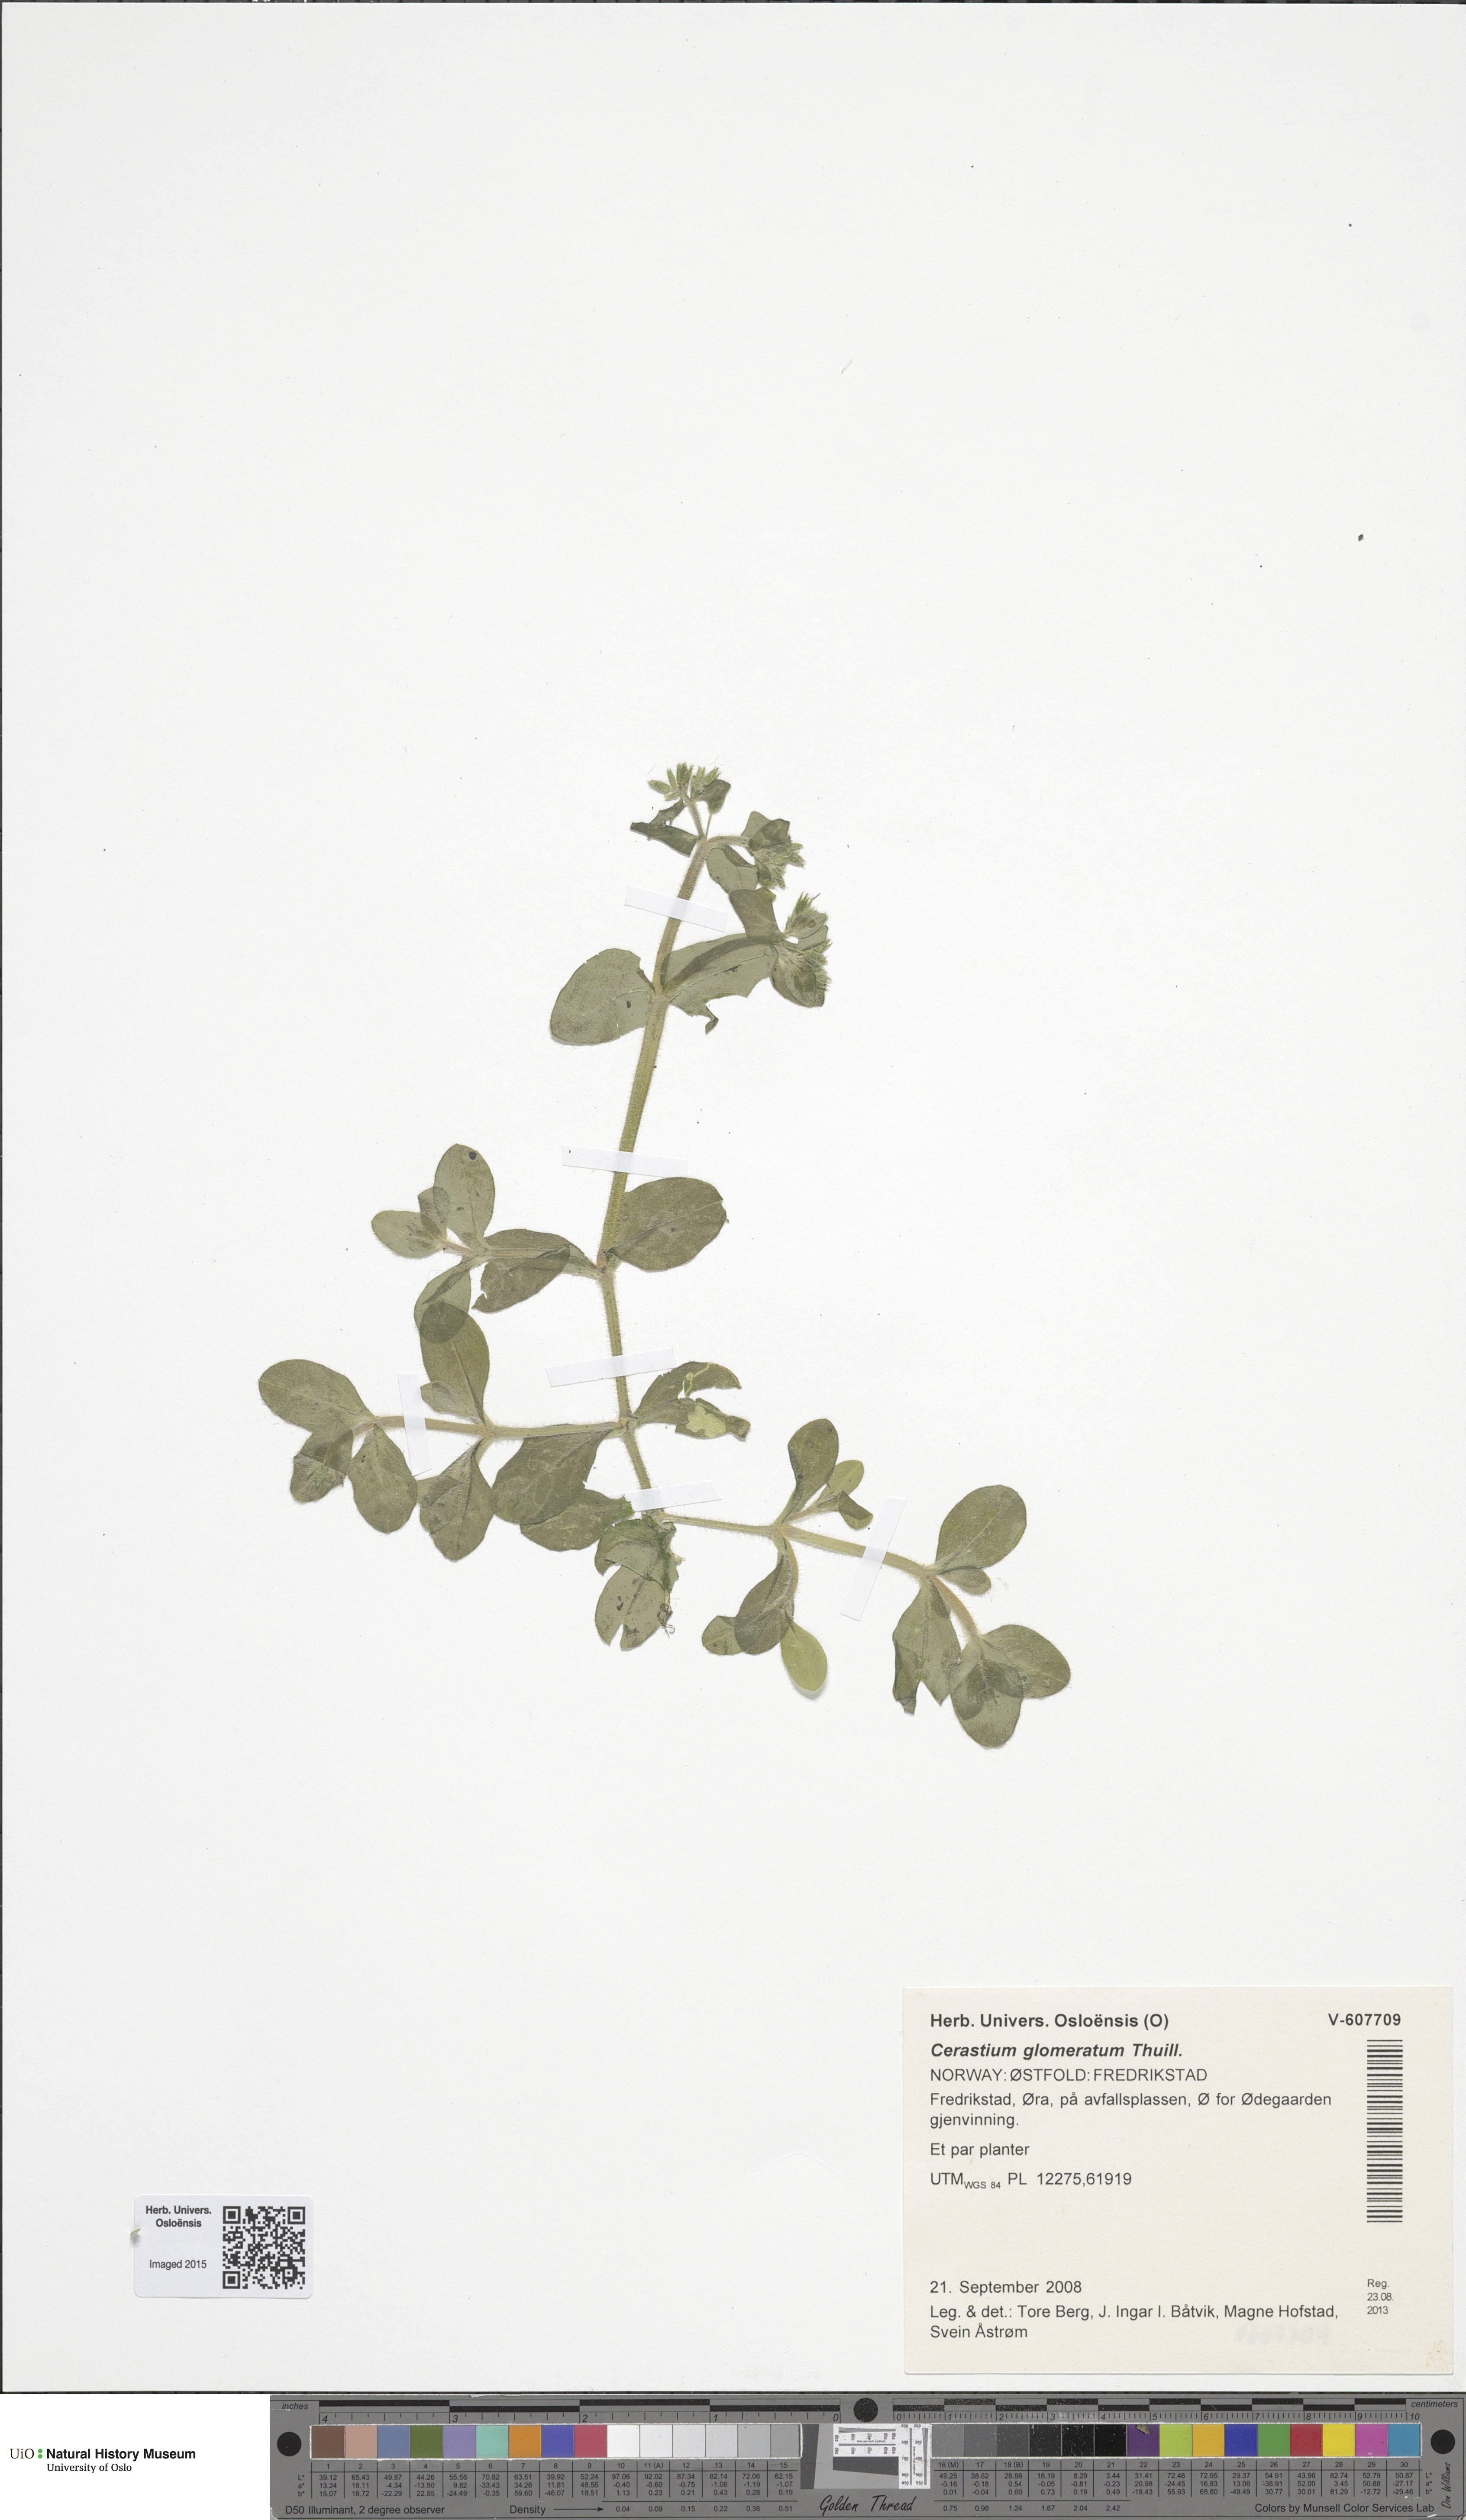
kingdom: Plantae
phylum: Tracheophyta
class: Magnoliopsida
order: Caryophyllales
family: Caryophyllaceae
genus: Cerastium
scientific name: Cerastium glomeratum
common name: Sticky chickweed
